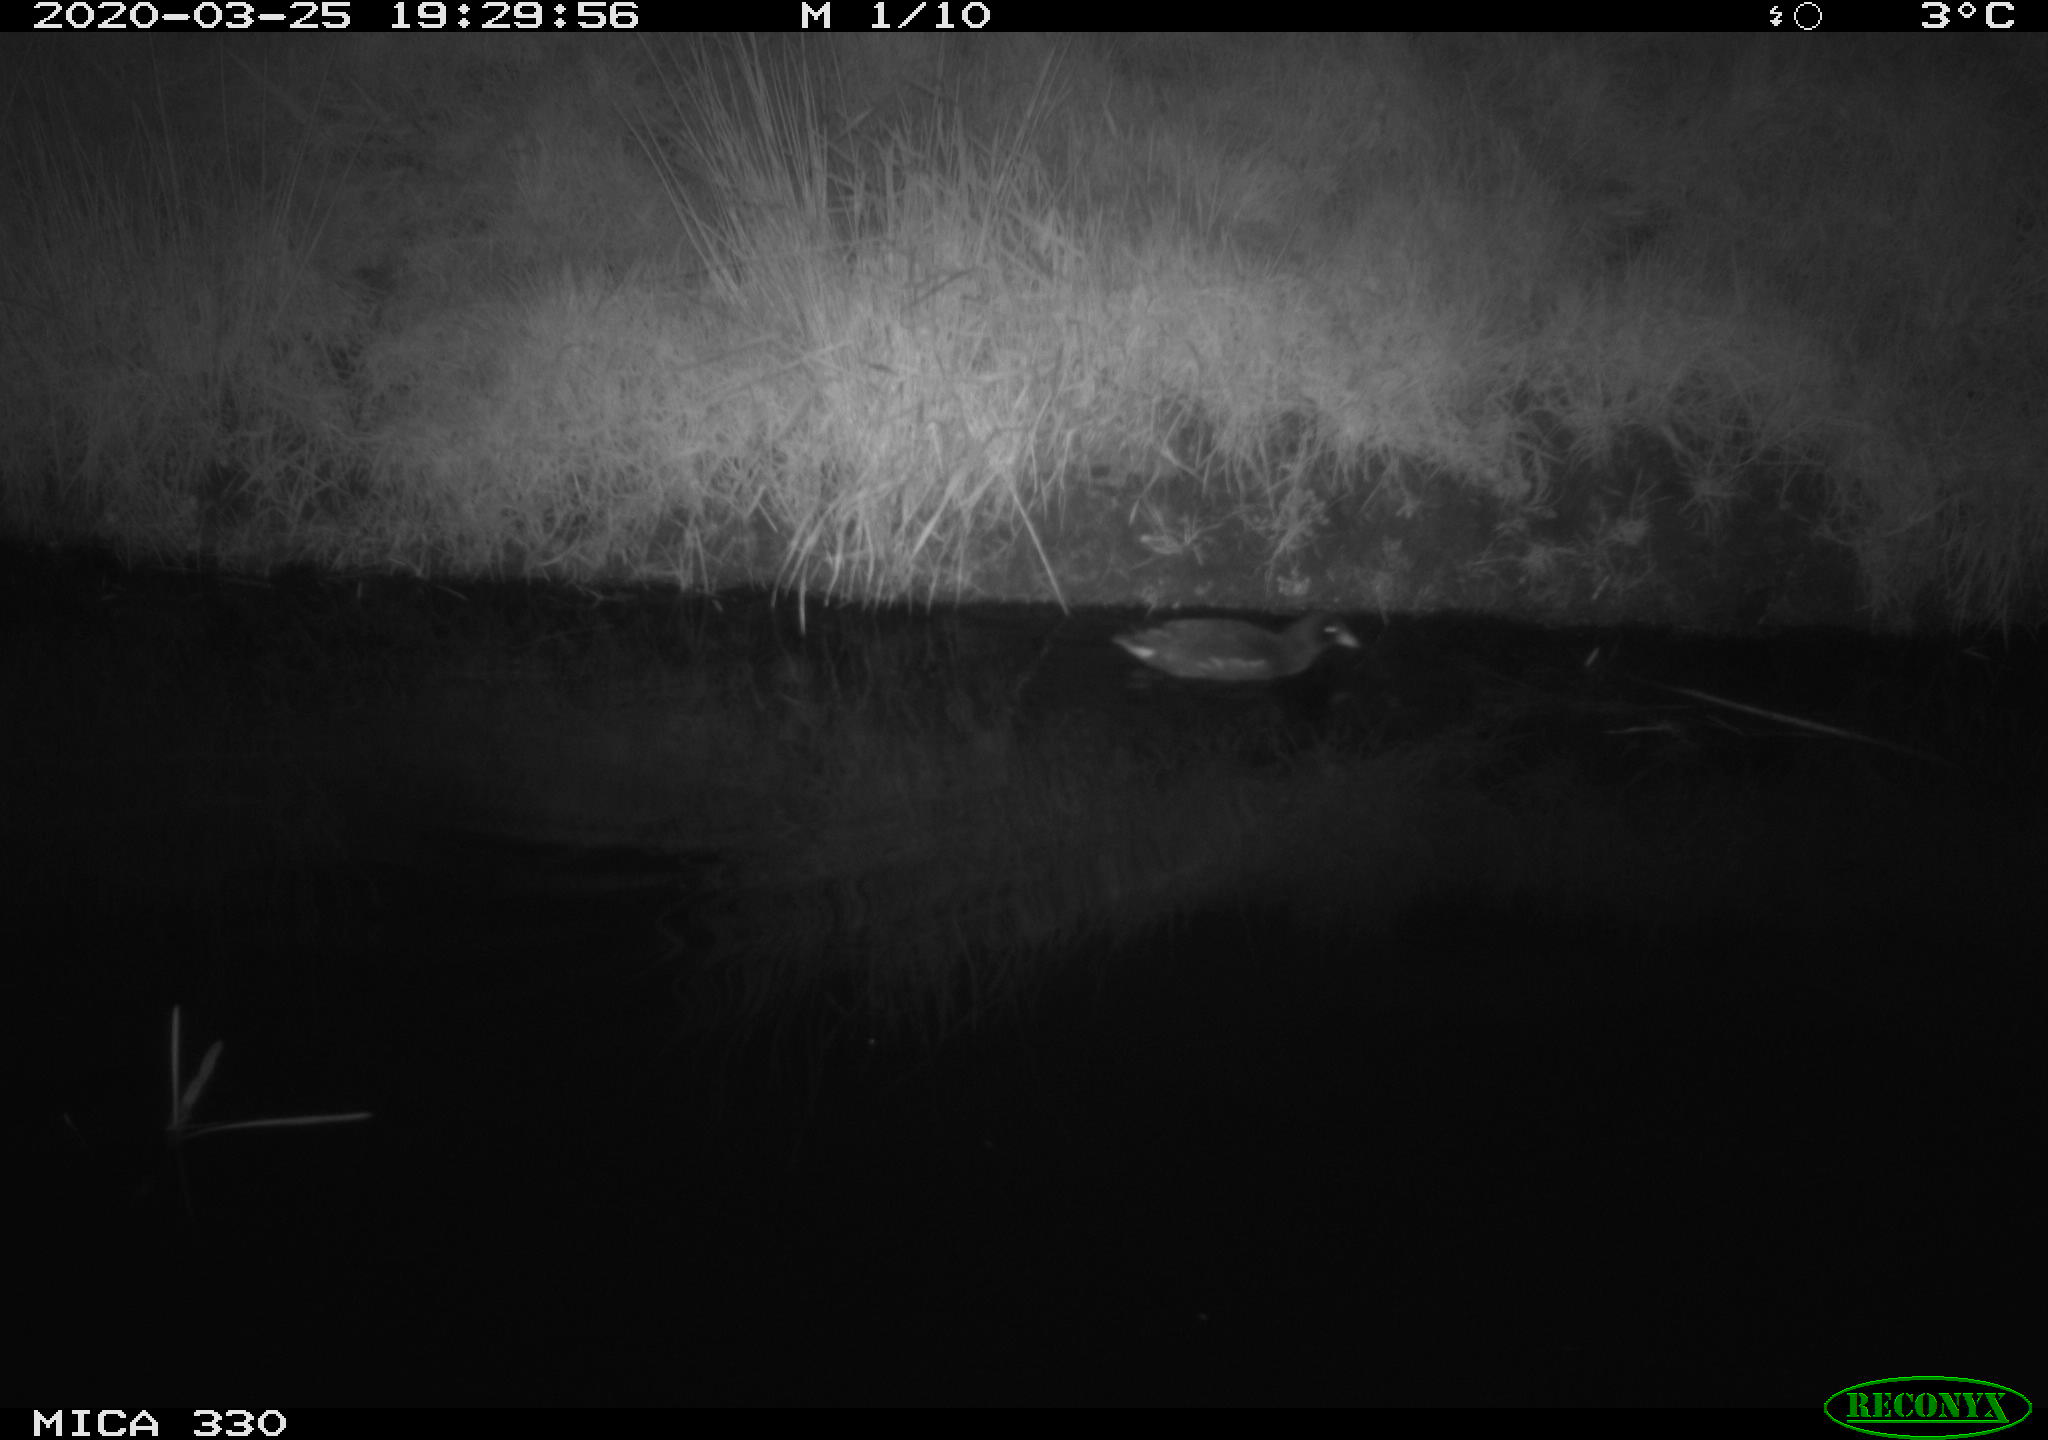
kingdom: Animalia
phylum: Chordata
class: Aves
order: Gruiformes
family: Rallidae
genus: Gallinula
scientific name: Gallinula chloropus
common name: Common moorhen
